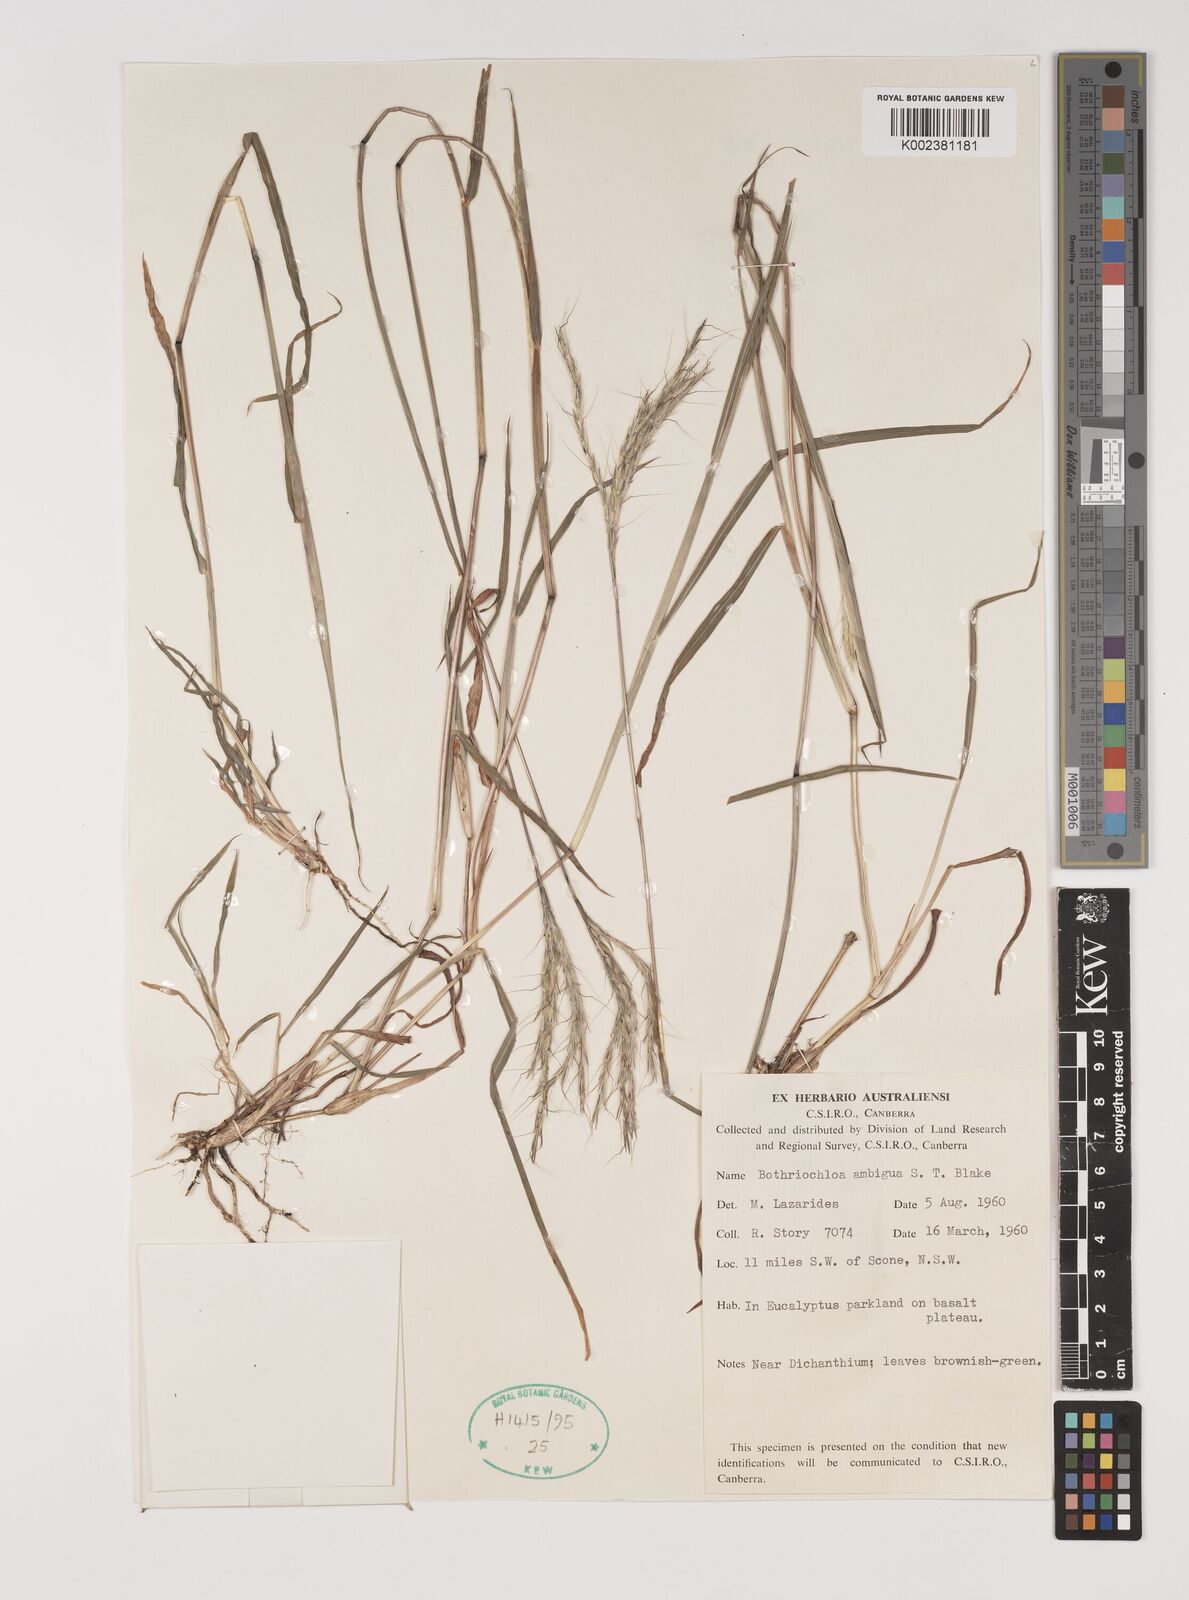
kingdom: Plantae
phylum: Tracheophyta
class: Liliopsida
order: Poales
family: Poaceae
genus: Bothriochloa
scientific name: Bothriochloa macra
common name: Pitted beard grass
